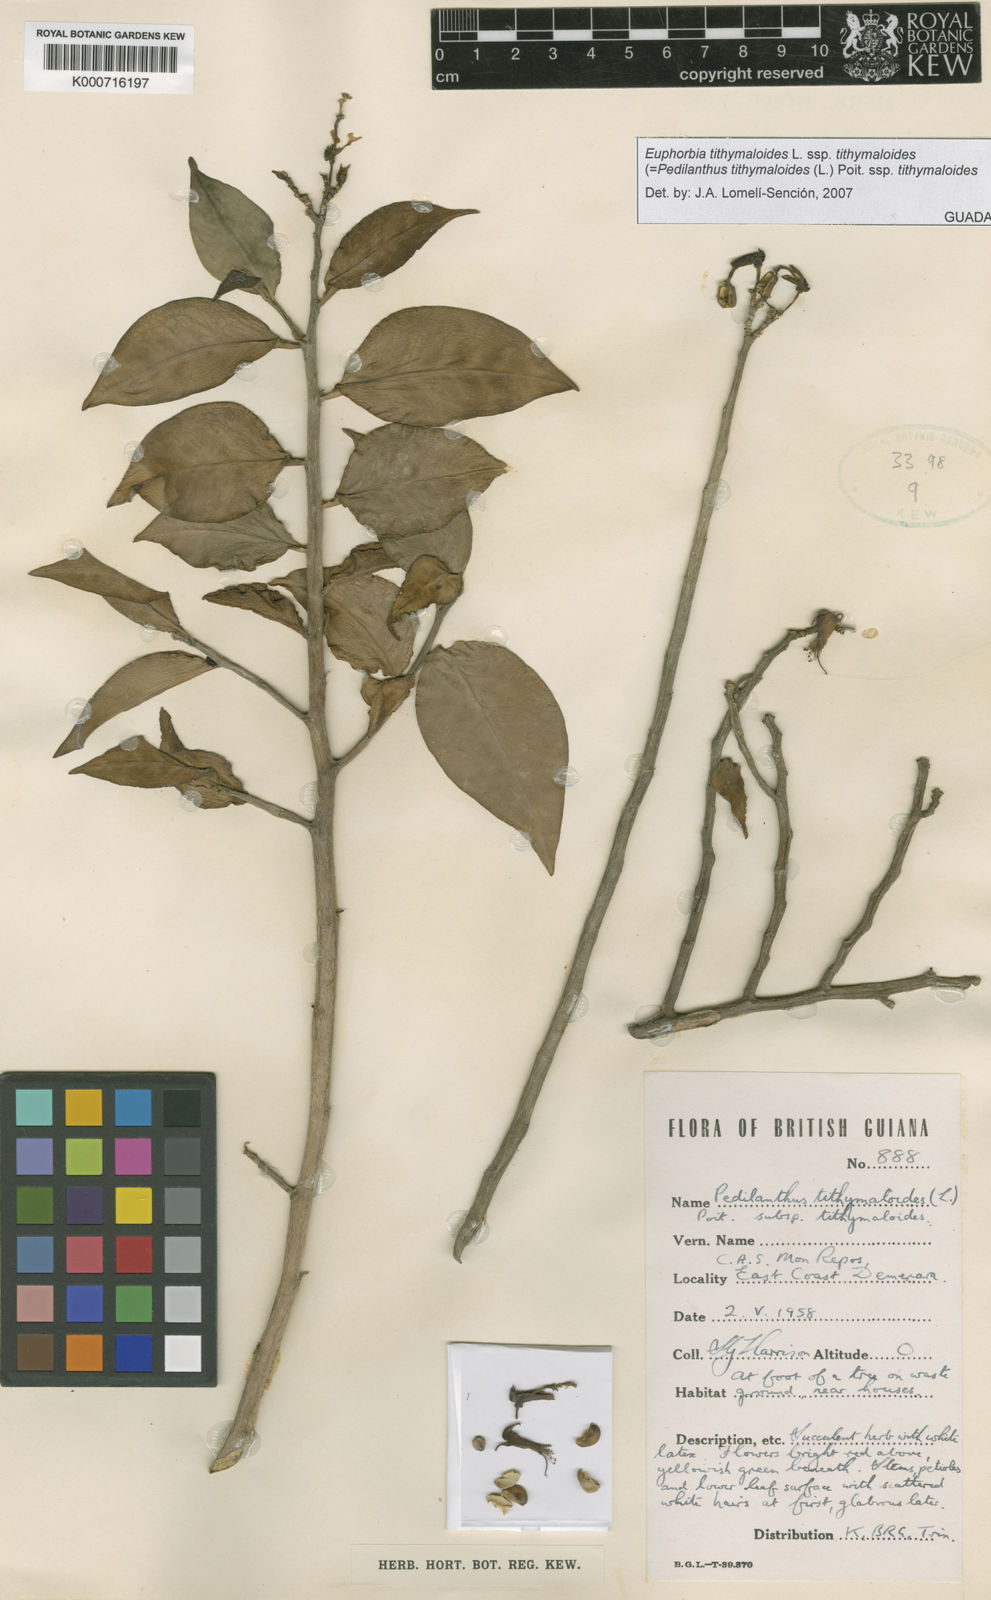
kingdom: Plantae
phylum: Tracheophyta
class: Magnoliopsida
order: Malpighiales
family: Euphorbiaceae
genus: Euphorbia
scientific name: Euphorbia tithymaloides
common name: Slipperplant
